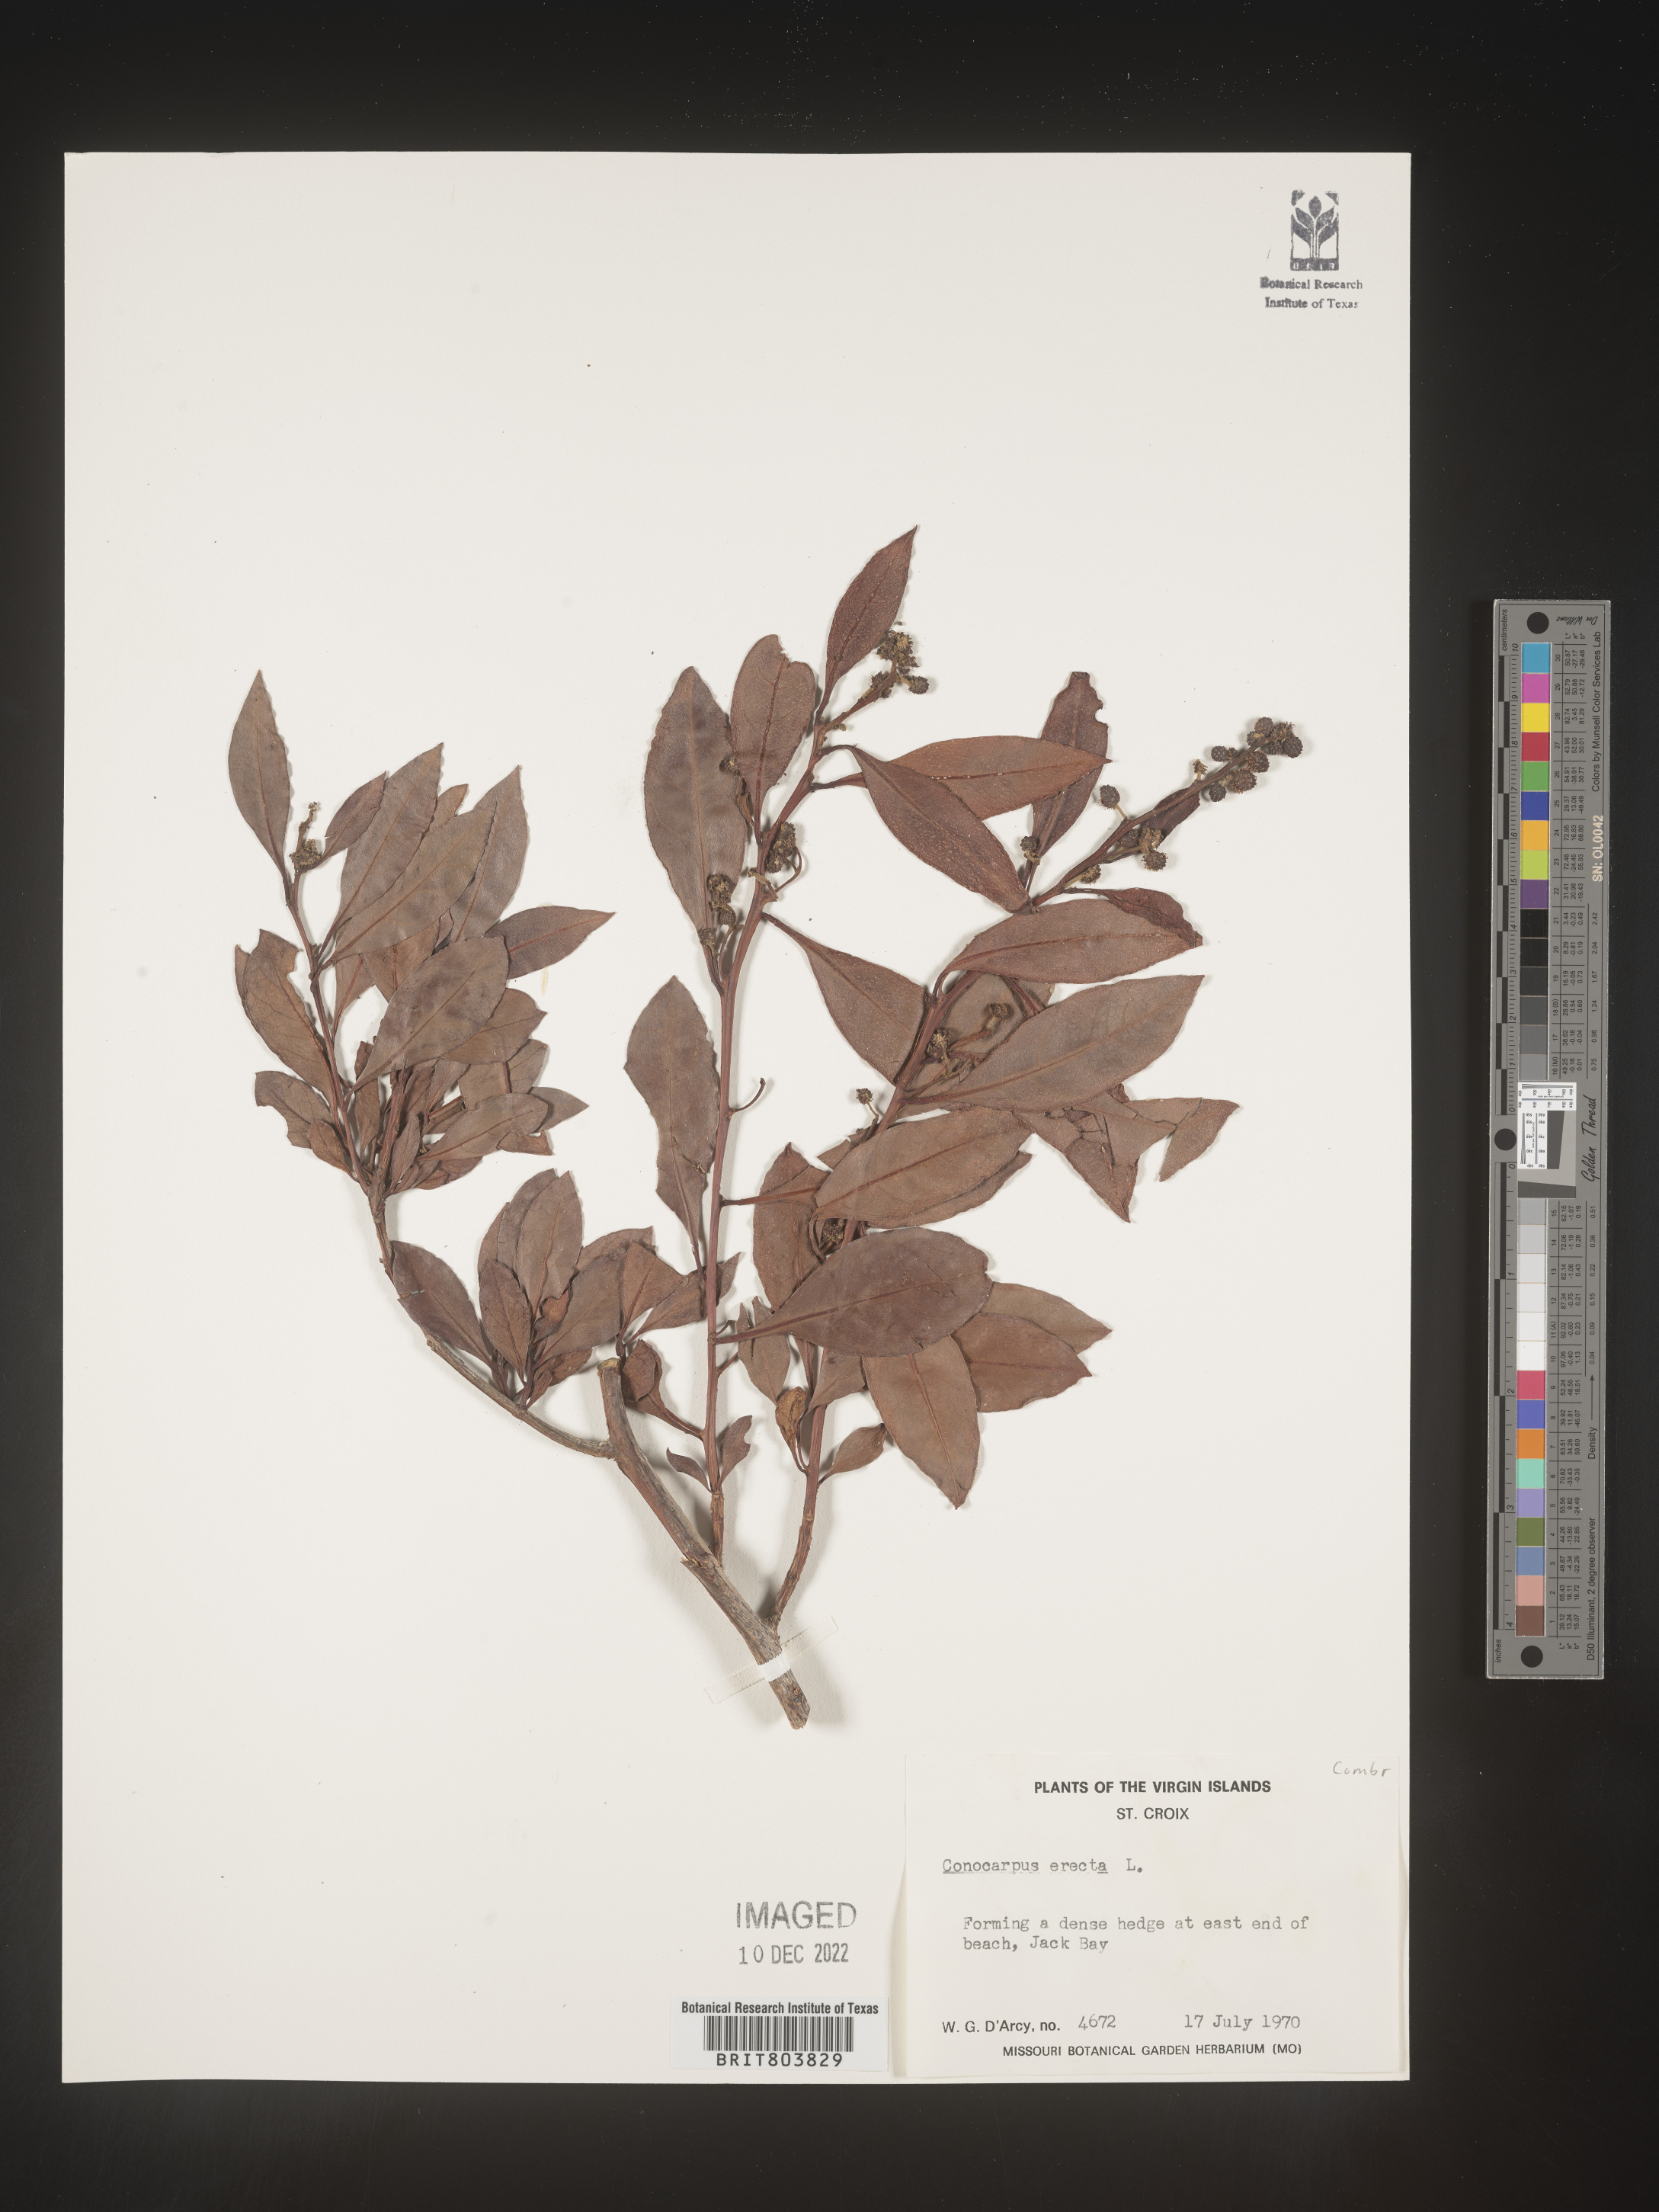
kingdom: Plantae
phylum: Tracheophyta
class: Magnoliopsida
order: Myrtales
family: Combretaceae
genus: Conocarpus
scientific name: Conocarpus
